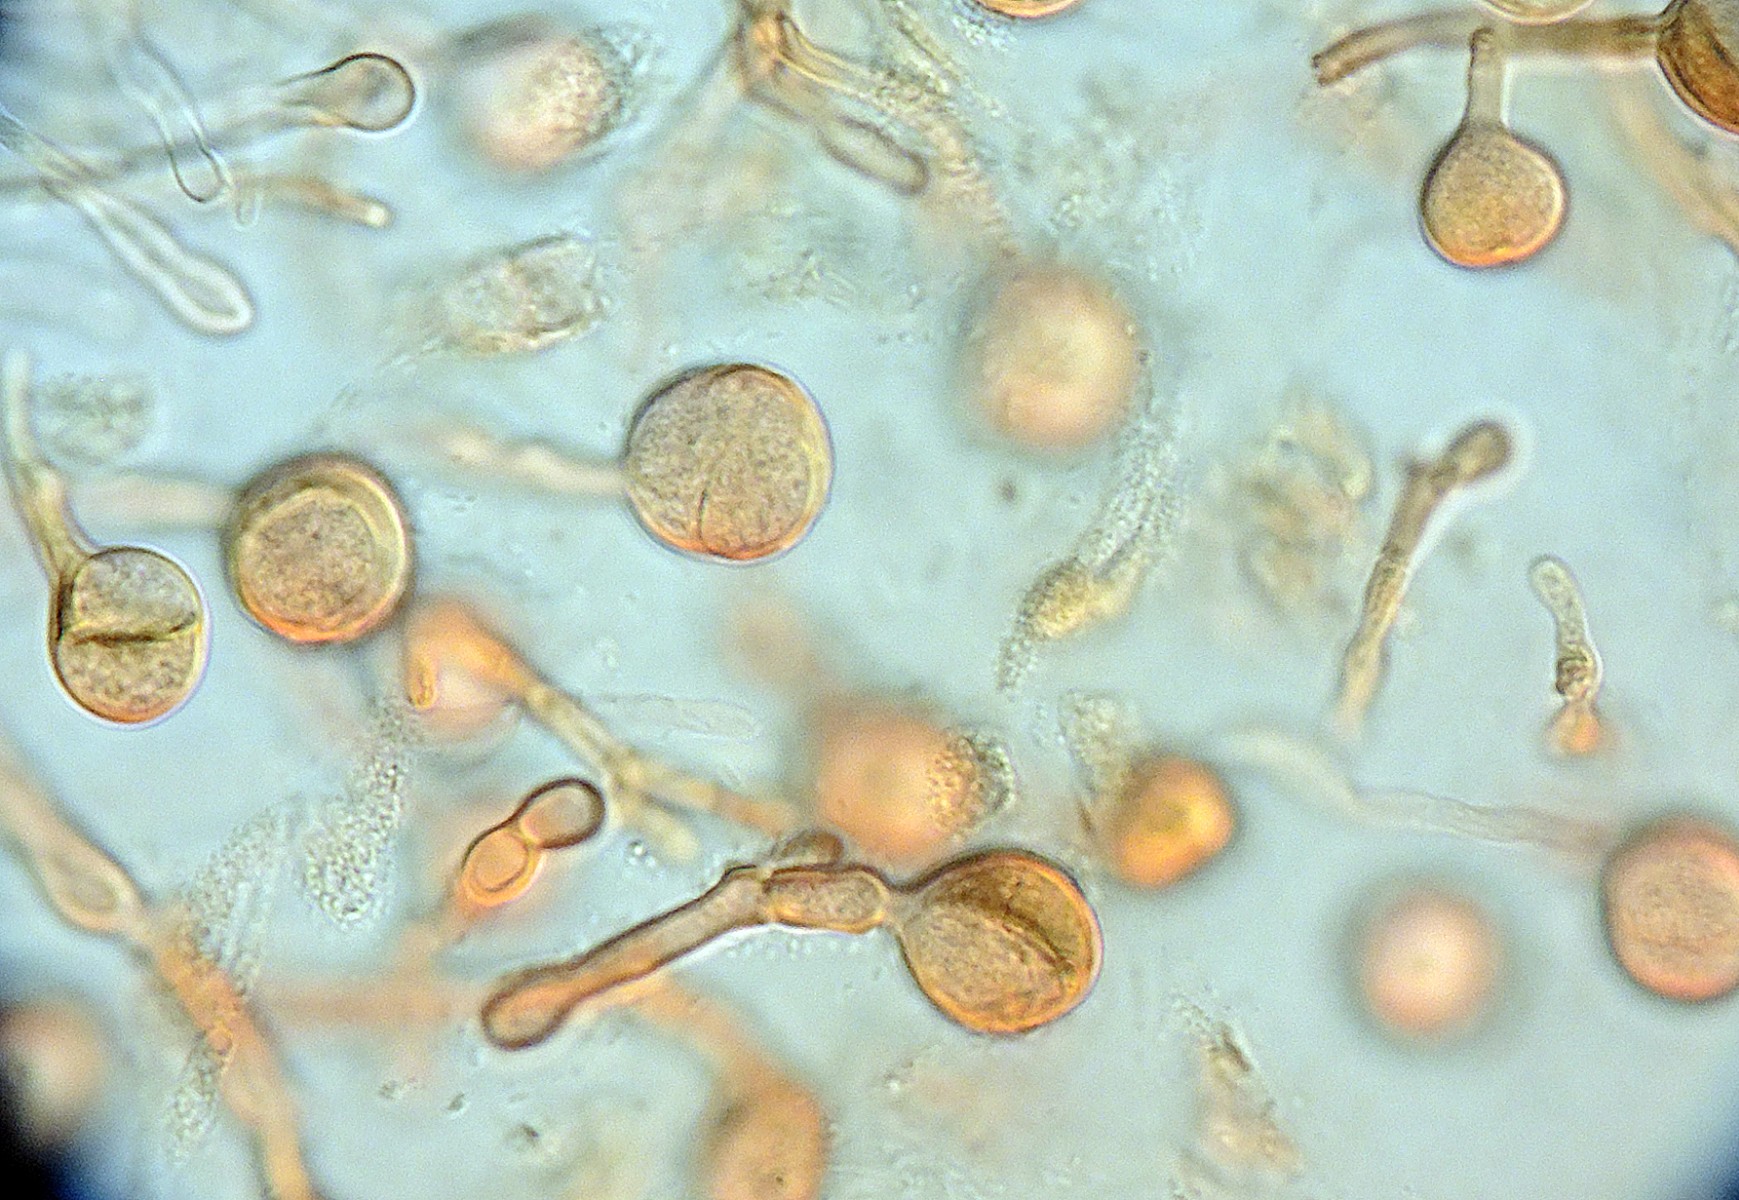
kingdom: Fungi
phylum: Basidiomycota
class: Tremellomycetes
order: Tremellales
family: Tremellaceae
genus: Tremella
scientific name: Tremella indecorata
